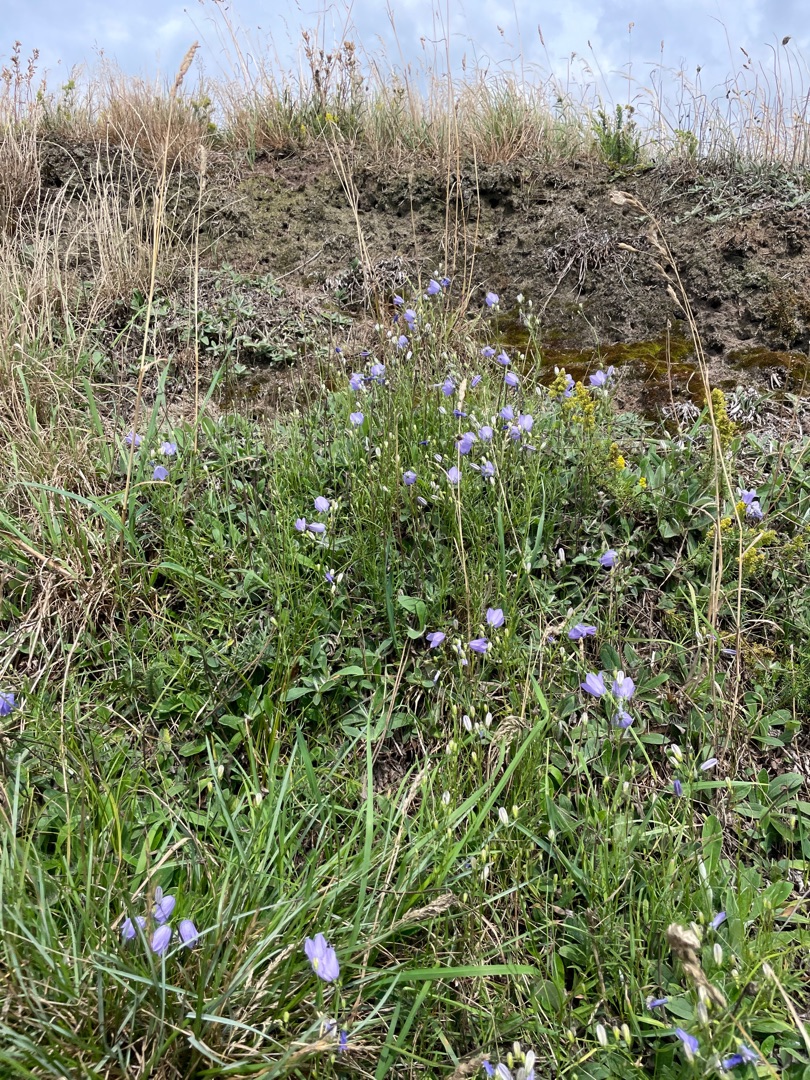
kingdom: Plantae
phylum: Tracheophyta
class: Magnoliopsida
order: Asterales
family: Campanulaceae
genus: Campanula
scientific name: Campanula rotundifolia
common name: Liden klokke
